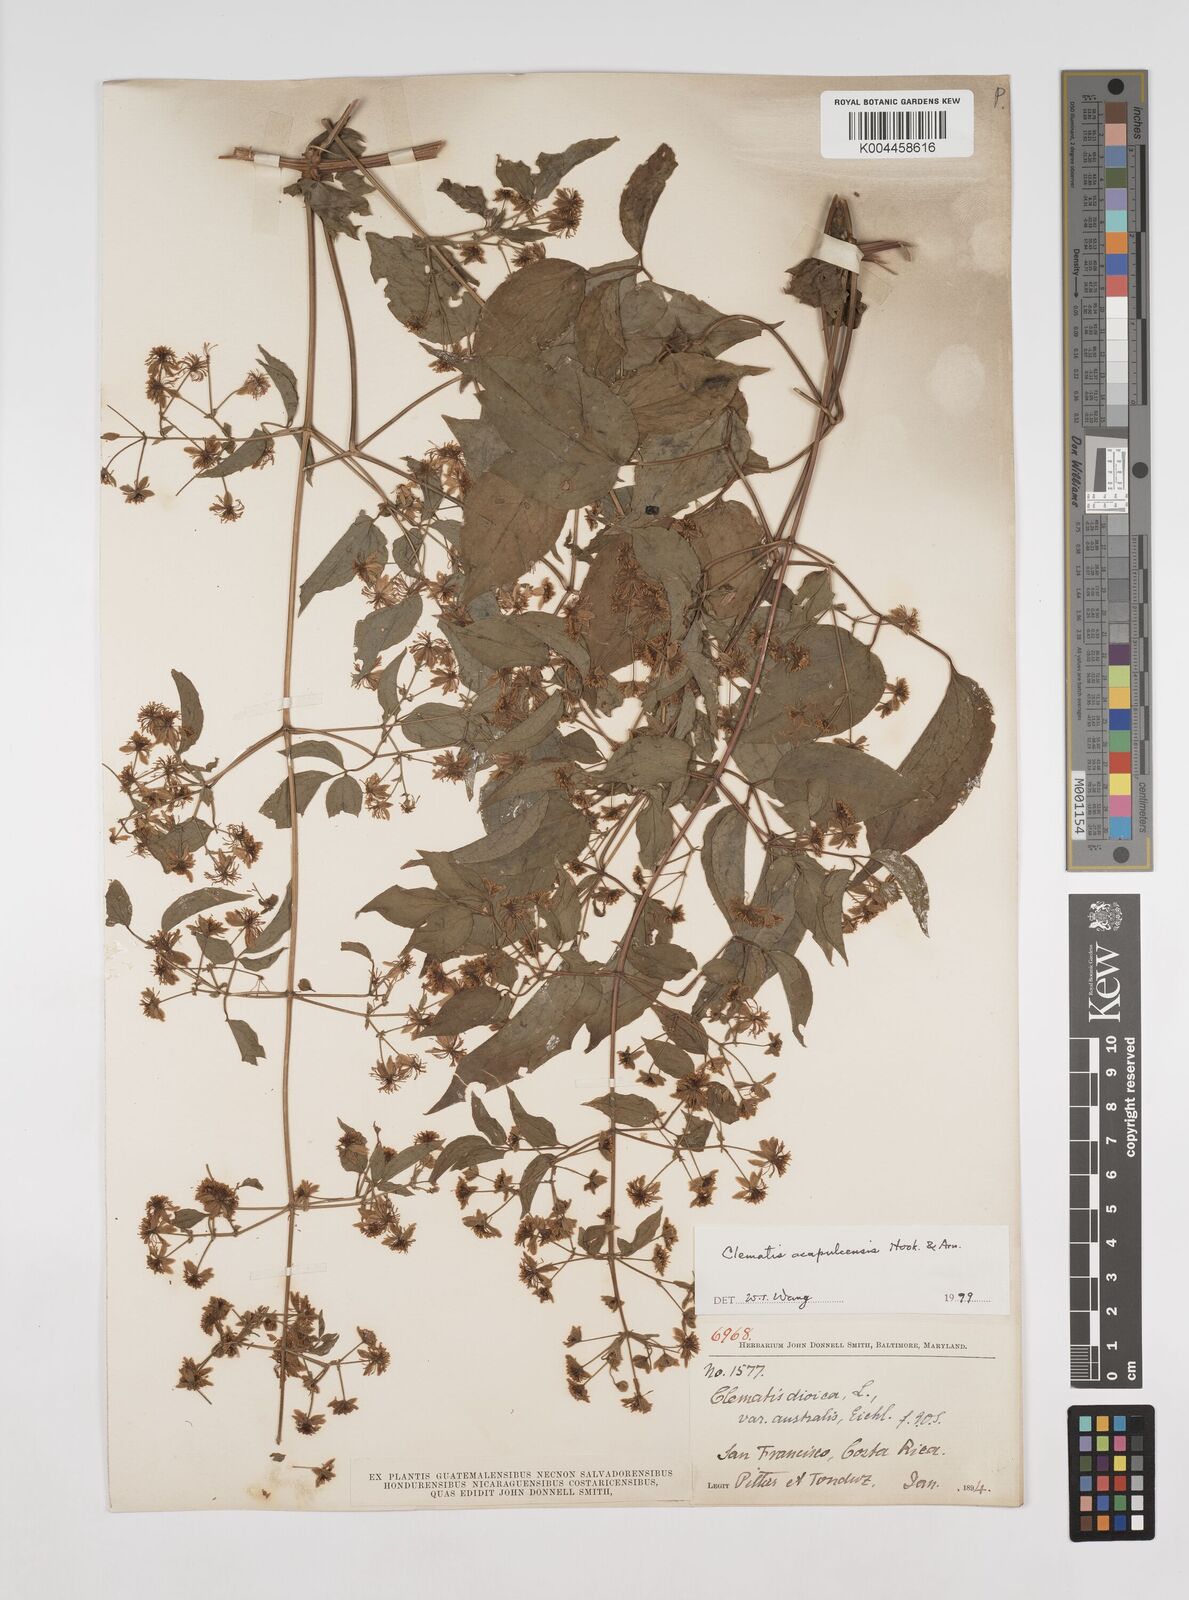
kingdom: Plantae
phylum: Tracheophyta
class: Magnoliopsida
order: Ranunculales
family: Ranunculaceae
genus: Clematis
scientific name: Clematis acapulcensis
